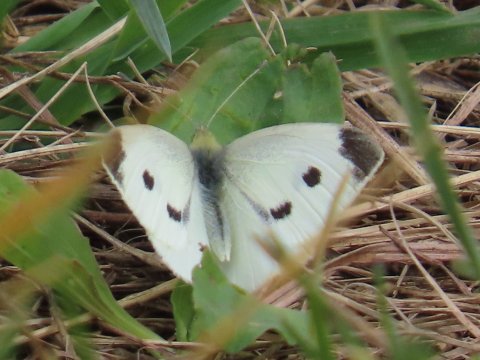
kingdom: Animalia
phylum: Arthropoda
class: Insecta
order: Lepidoptera
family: Pieridae
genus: Pieris
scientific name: Pieris rapae
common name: Cabbage White
